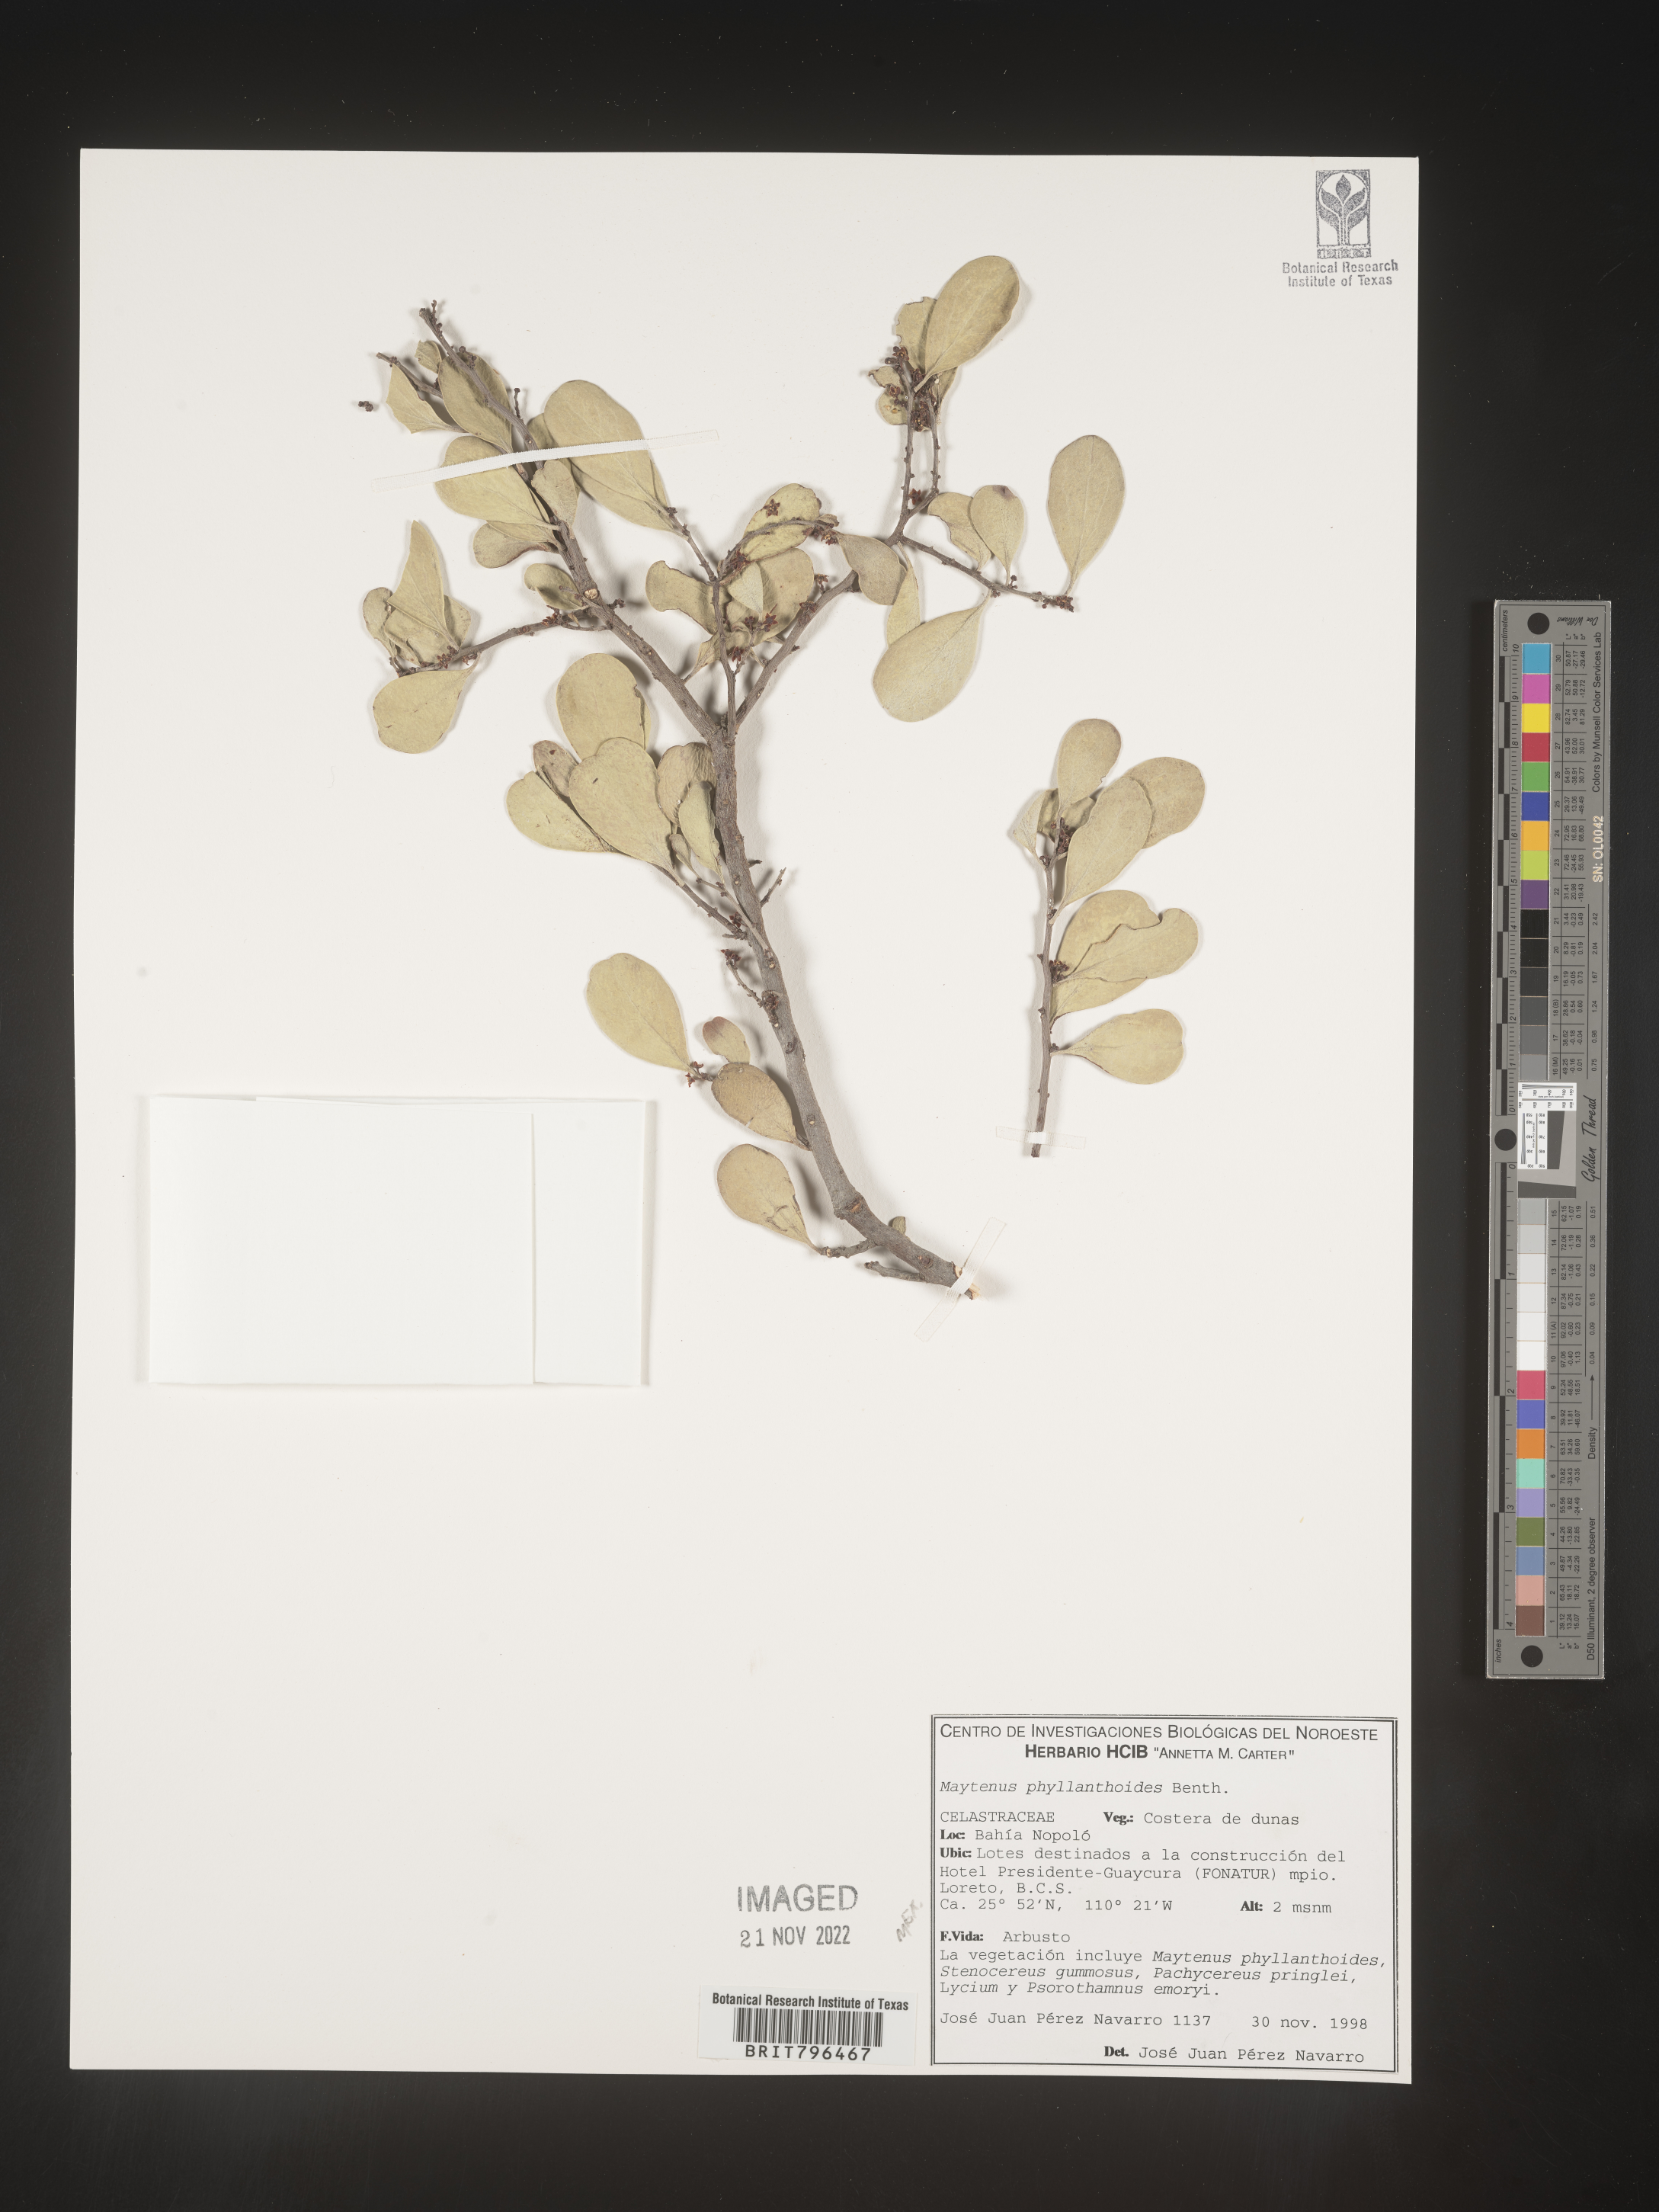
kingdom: Plantae
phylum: Tracheophyta
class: Magnoliopsida
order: Celastrales
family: Celastraceae
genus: Maytenus
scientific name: Maytenus
